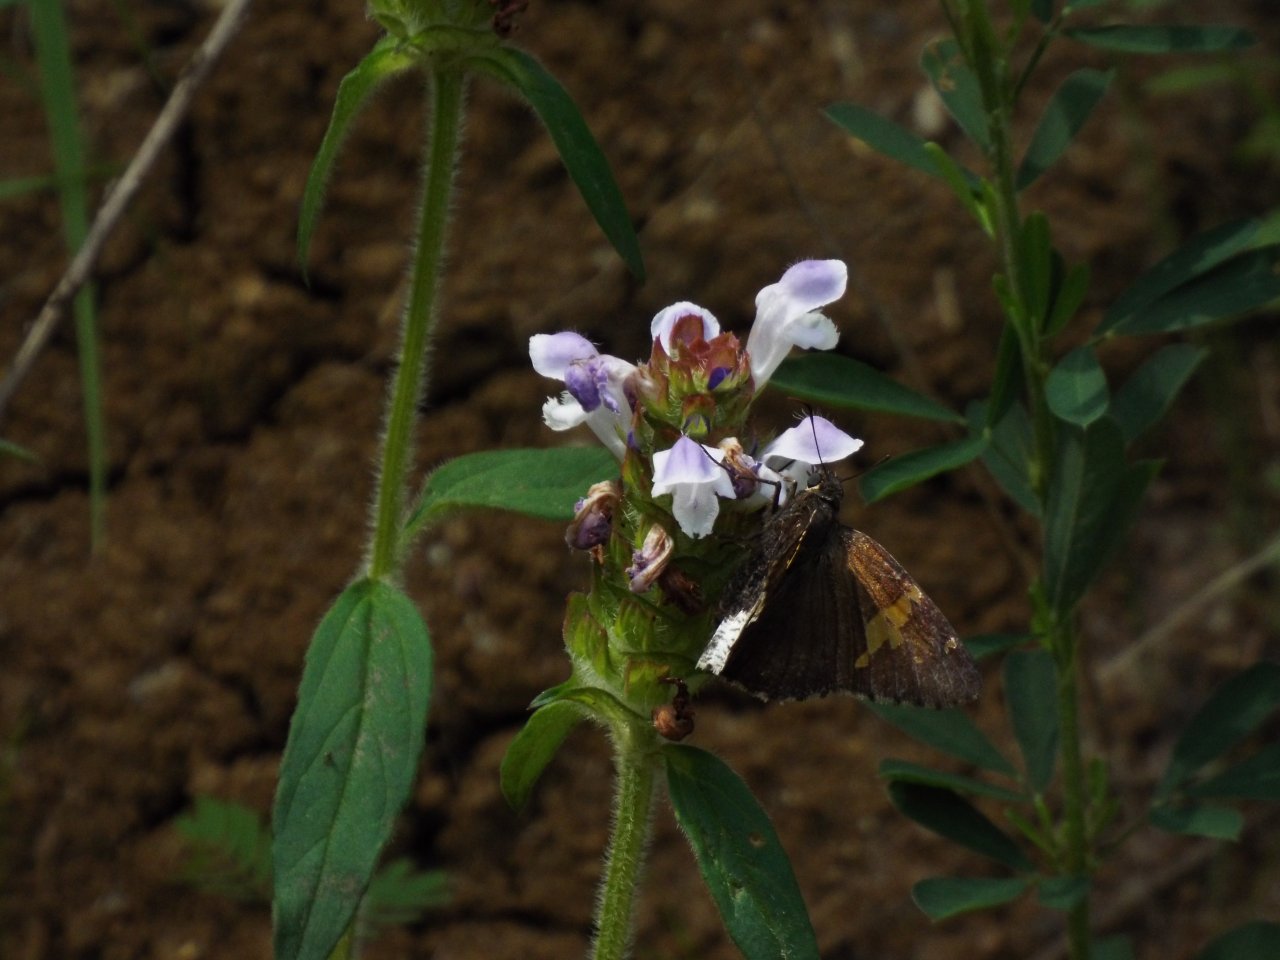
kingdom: Animalia
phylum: Arthropoda
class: Insecta
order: Lepidoptera
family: Hesperiidae
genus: Achalarus
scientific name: Achalarus lyciades
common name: Hoary Edge
